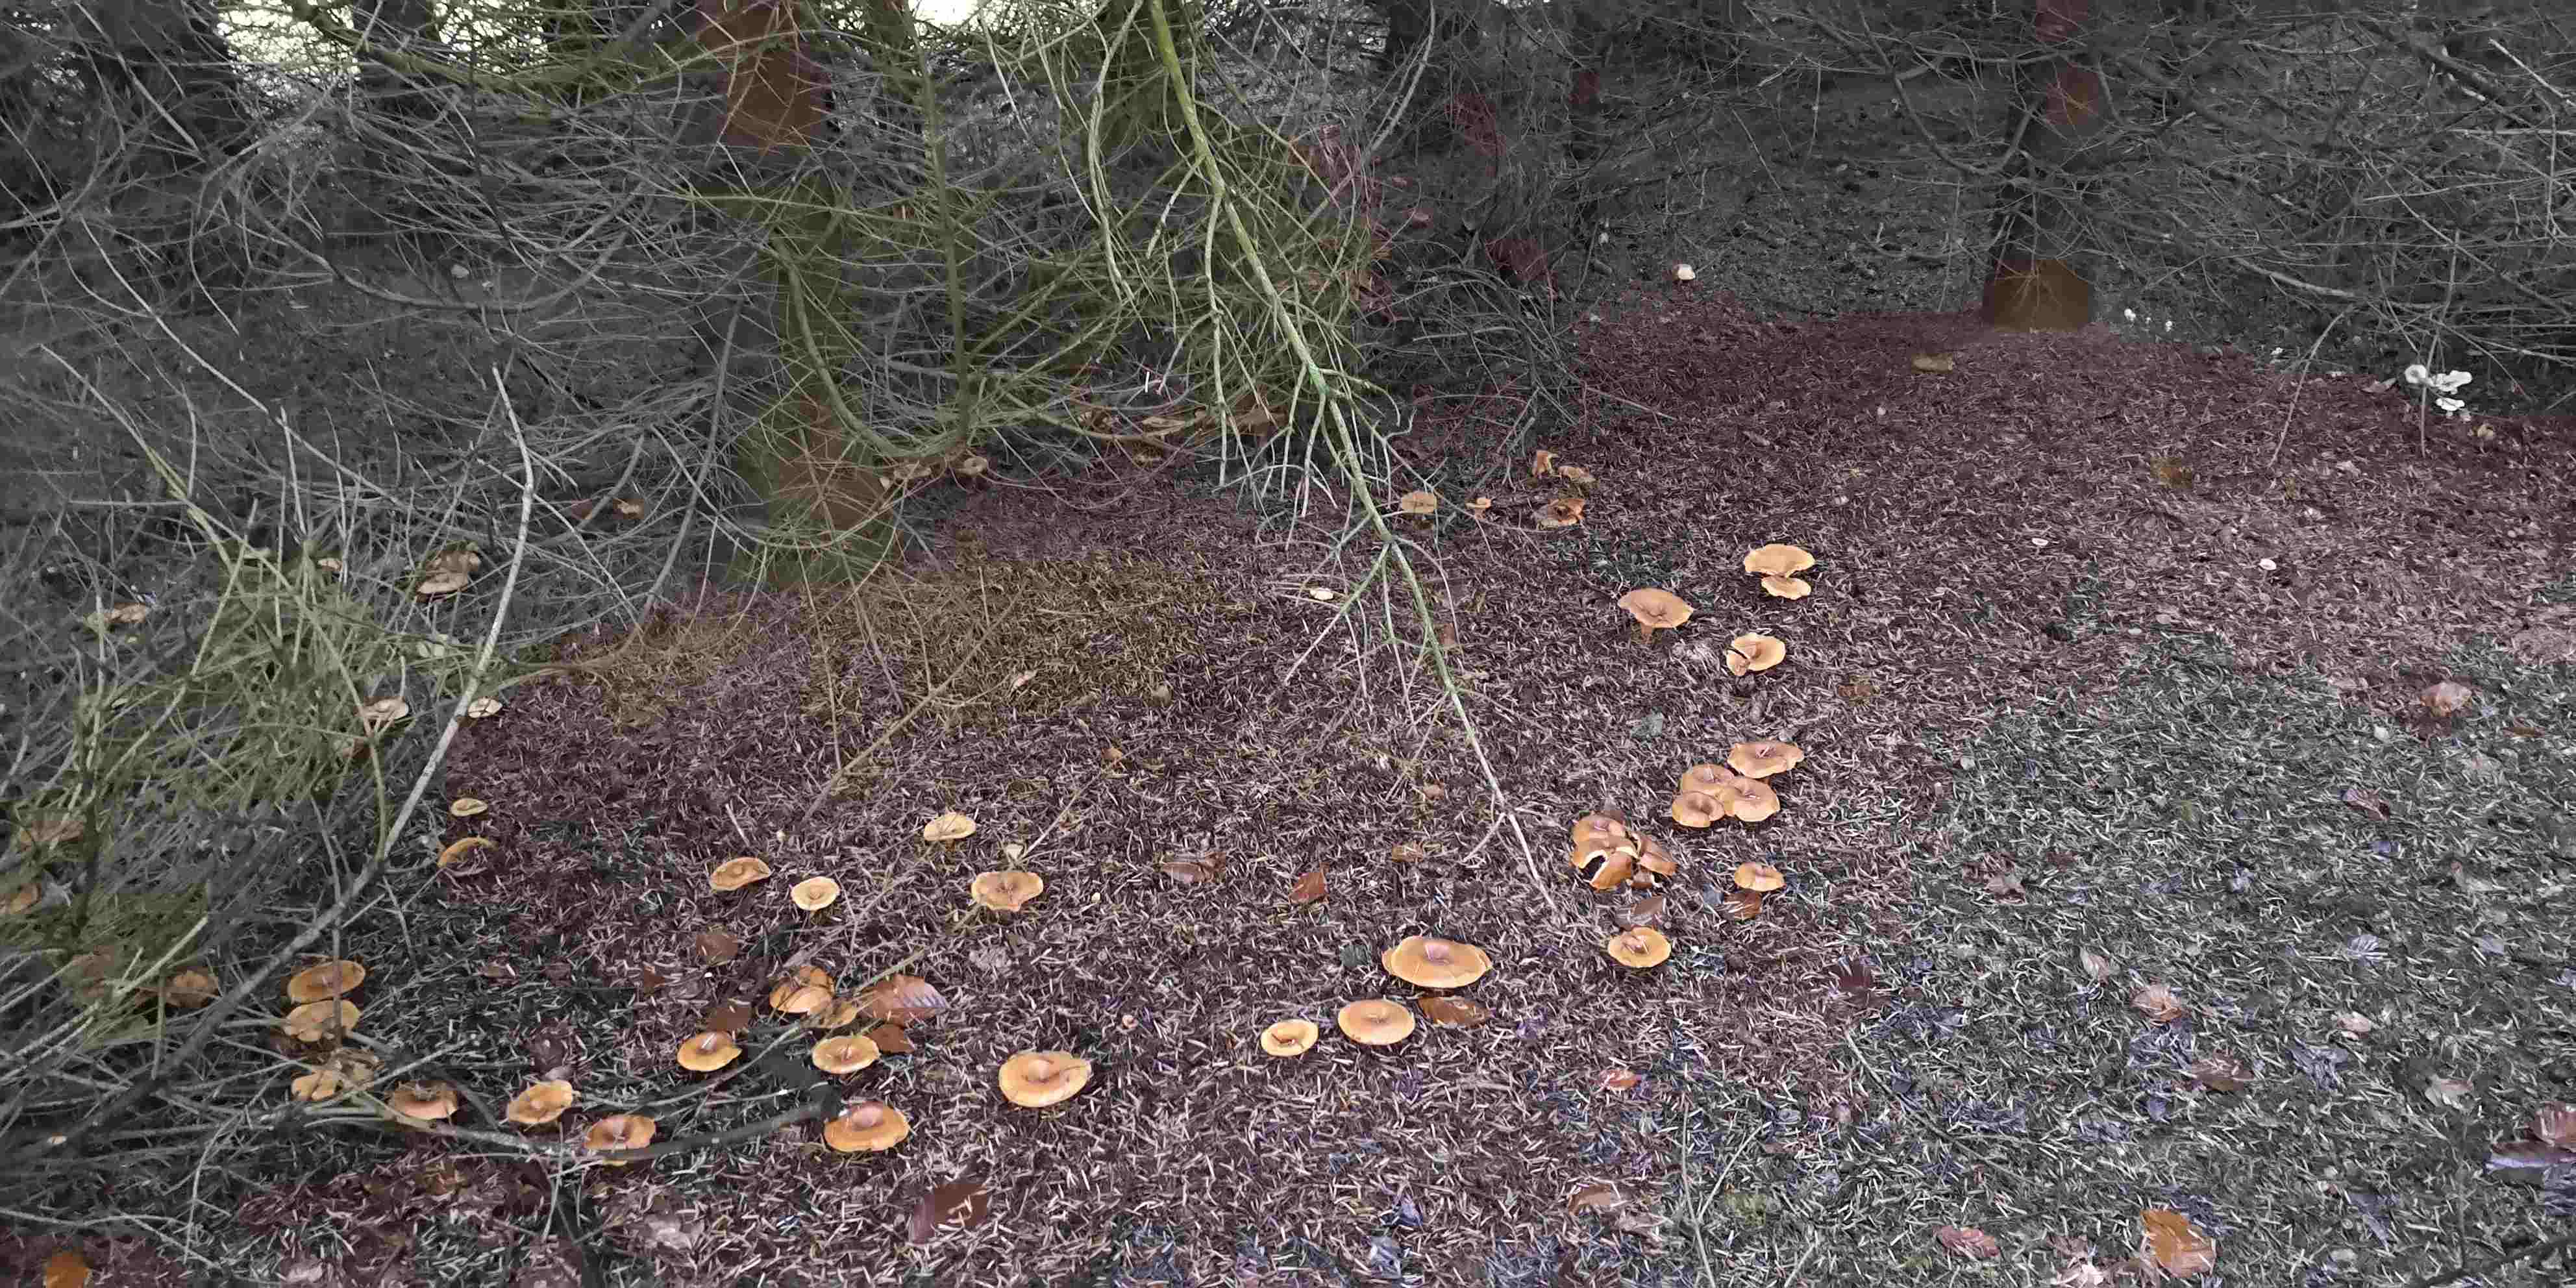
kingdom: Fungi
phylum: Basidiomycota
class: Agaricomycetes
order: Agaricales
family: Tricholomataceae
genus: Paralepista
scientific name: Paralepista flaccida
